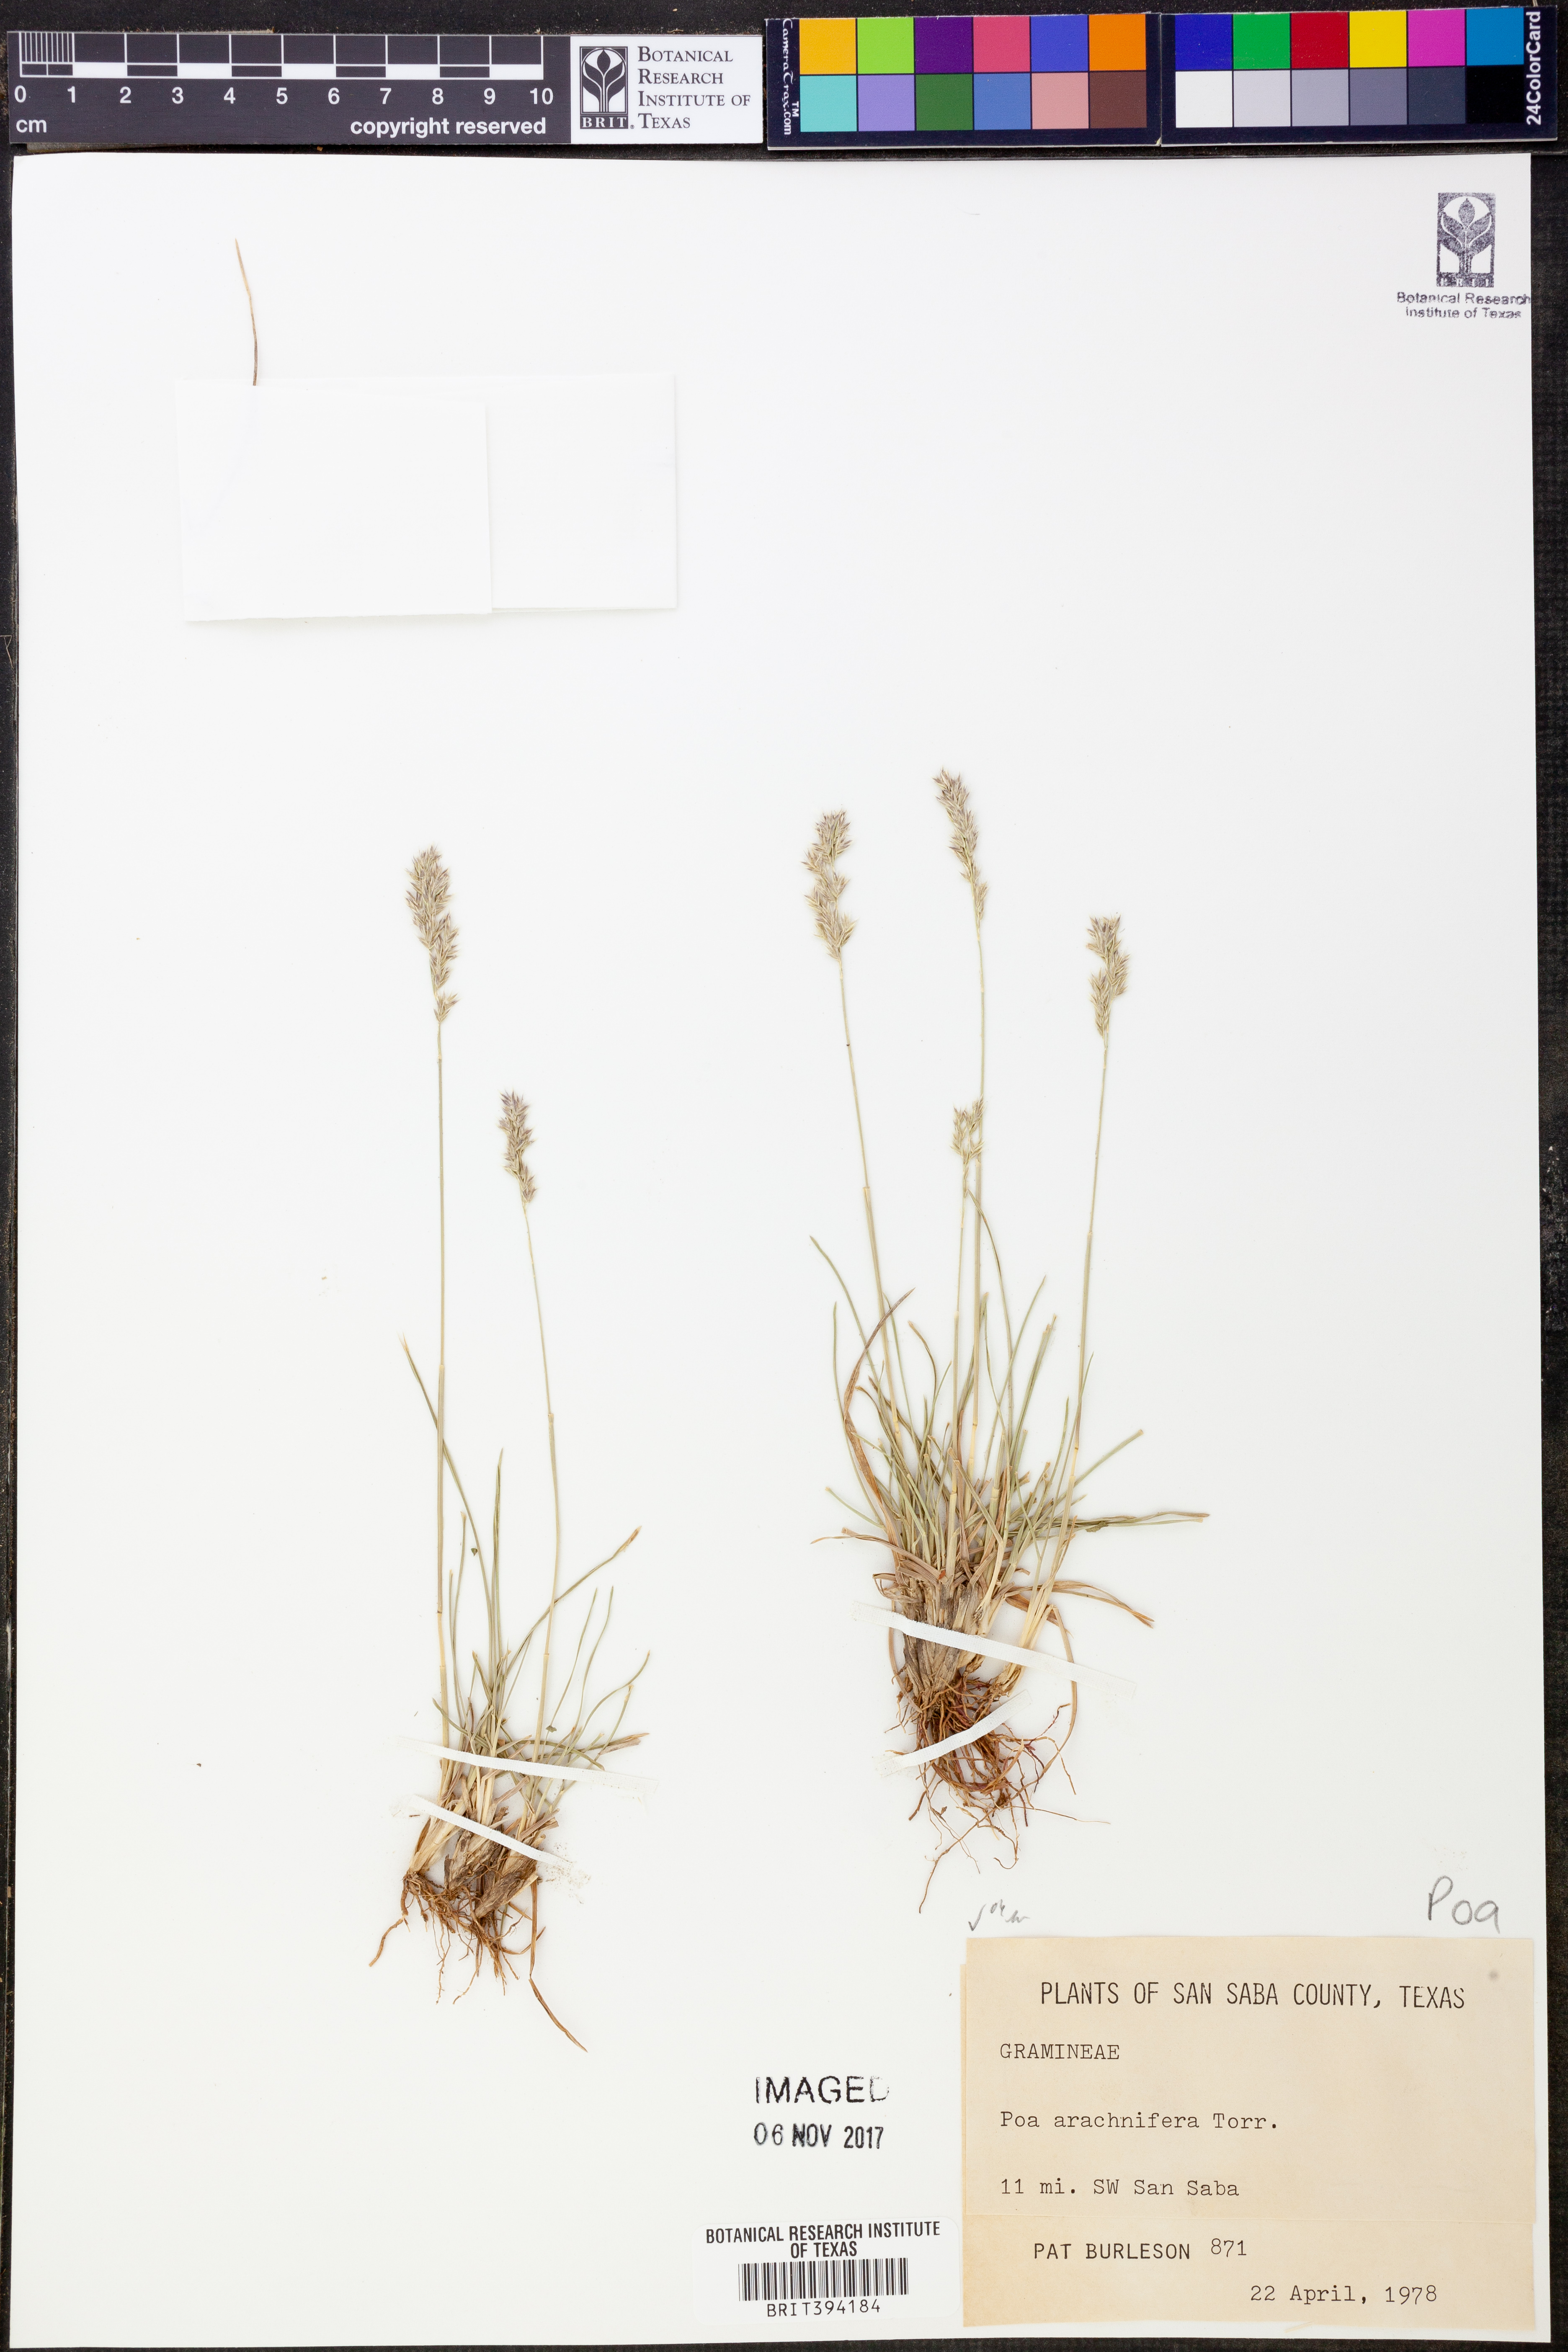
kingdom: Plantae
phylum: Tracheophyta
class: Liliopsida
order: Poales
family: Poaceae
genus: Poa
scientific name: Poa arachnifera
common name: Texas bluegrass
